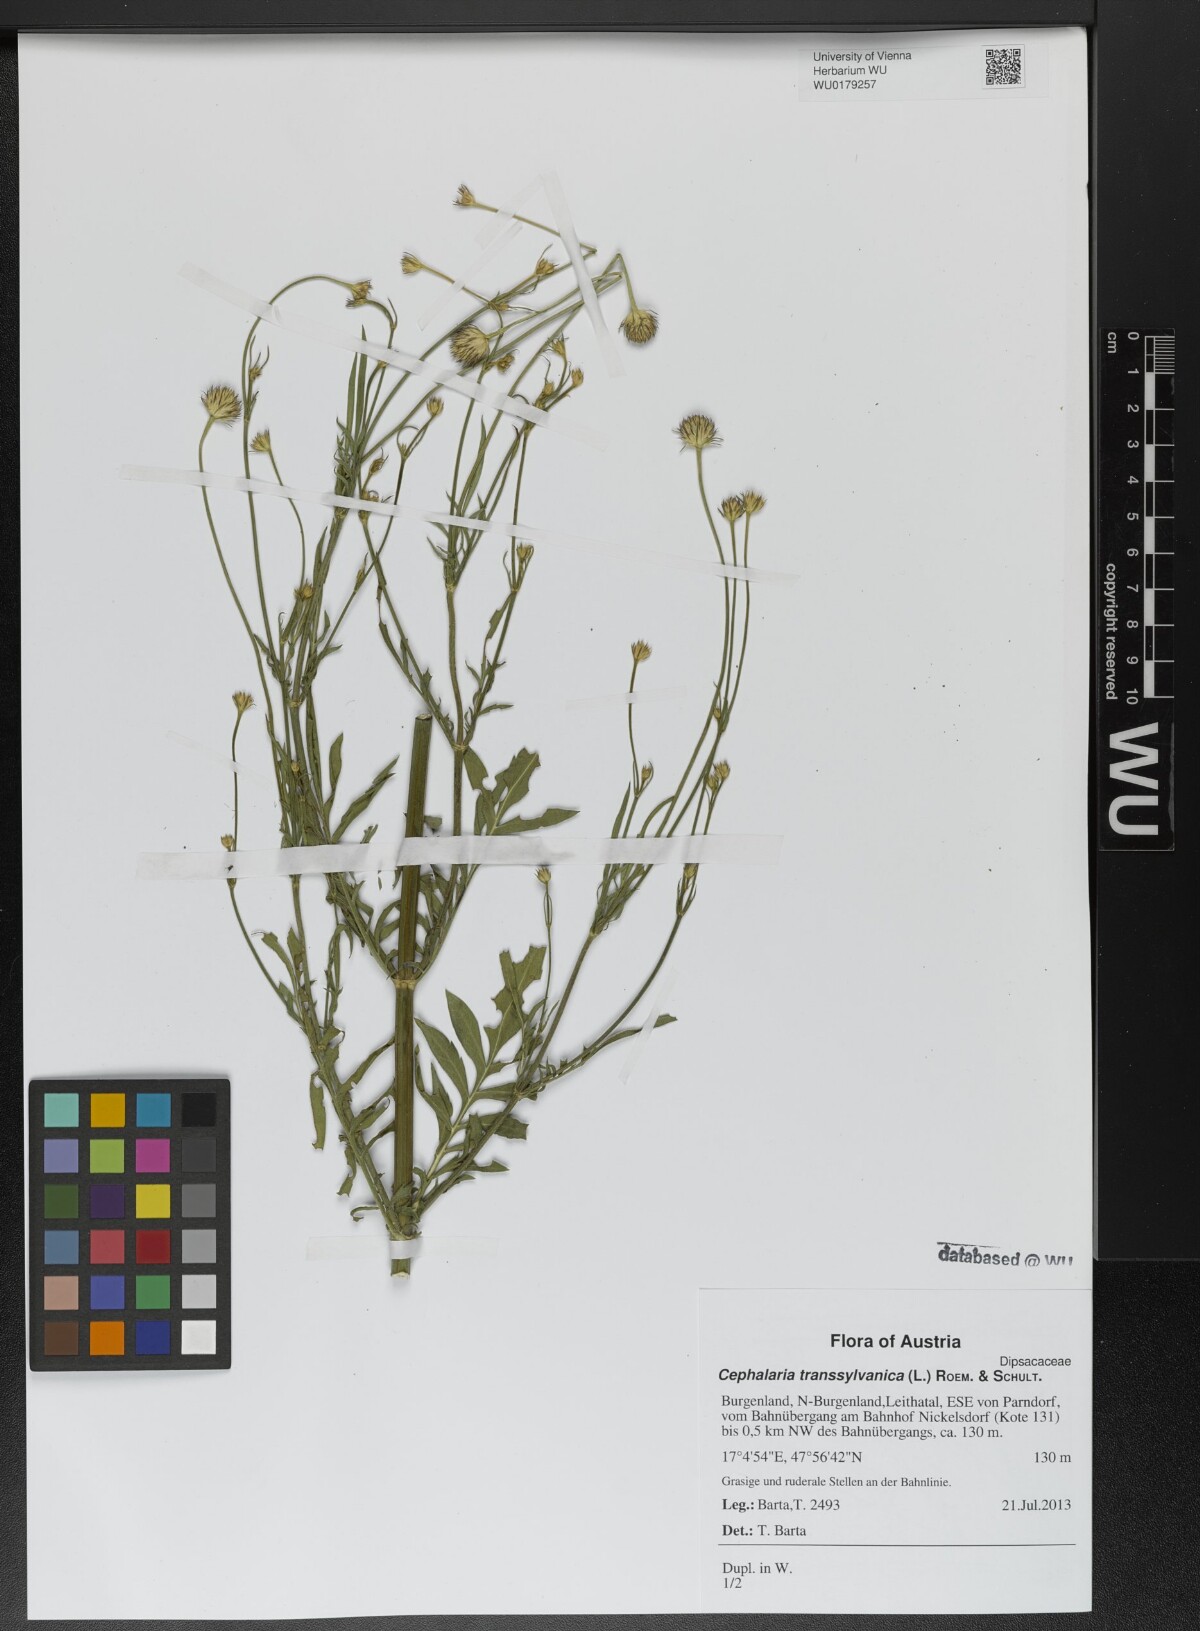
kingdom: Plantae
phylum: Tracheophyta
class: Magnoliopsida
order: Dipsacales
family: Caprifoliaceae
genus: Cephalaria
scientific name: Cephalaria transsylvanica
